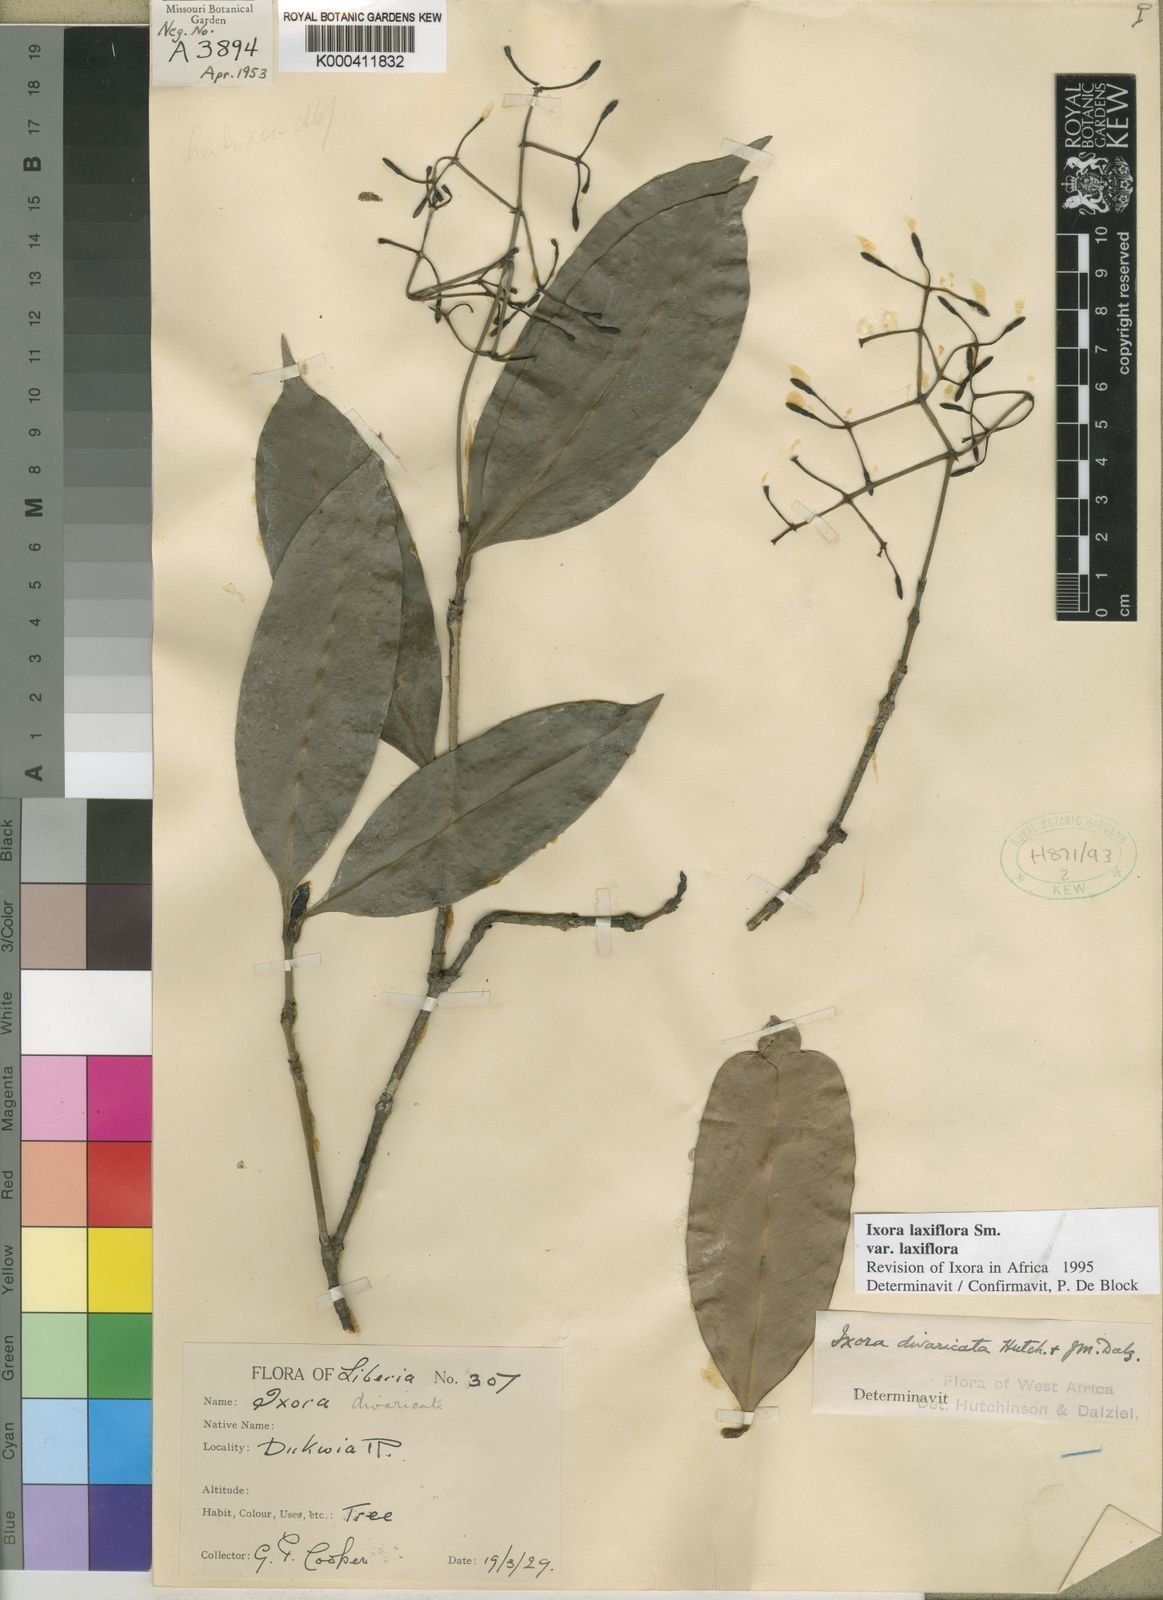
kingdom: Plantae
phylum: Tracheophyta
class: Magnoliopsida
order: Gentianales
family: Rubiaceae
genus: Ixora
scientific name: Ixora laxiflora
